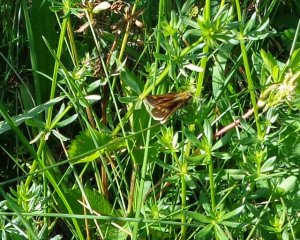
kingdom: Animalia
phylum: Arthropoda
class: Insecta
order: Lepidoptera
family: Hesperiidae
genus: Polites
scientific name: Polites coras
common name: Peck's Skipper
